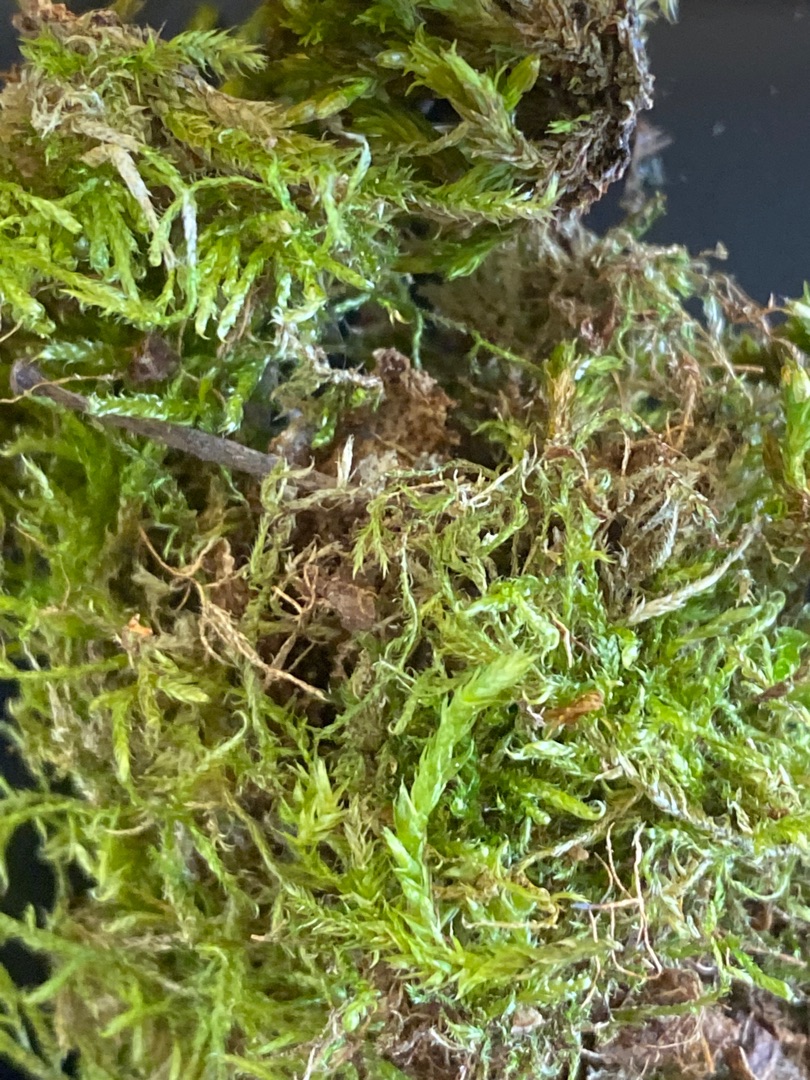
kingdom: Plantae
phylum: Bryophyta
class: Bryopsida
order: Hypnales
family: Hypnaceae
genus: Hypnum
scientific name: Hypnum
